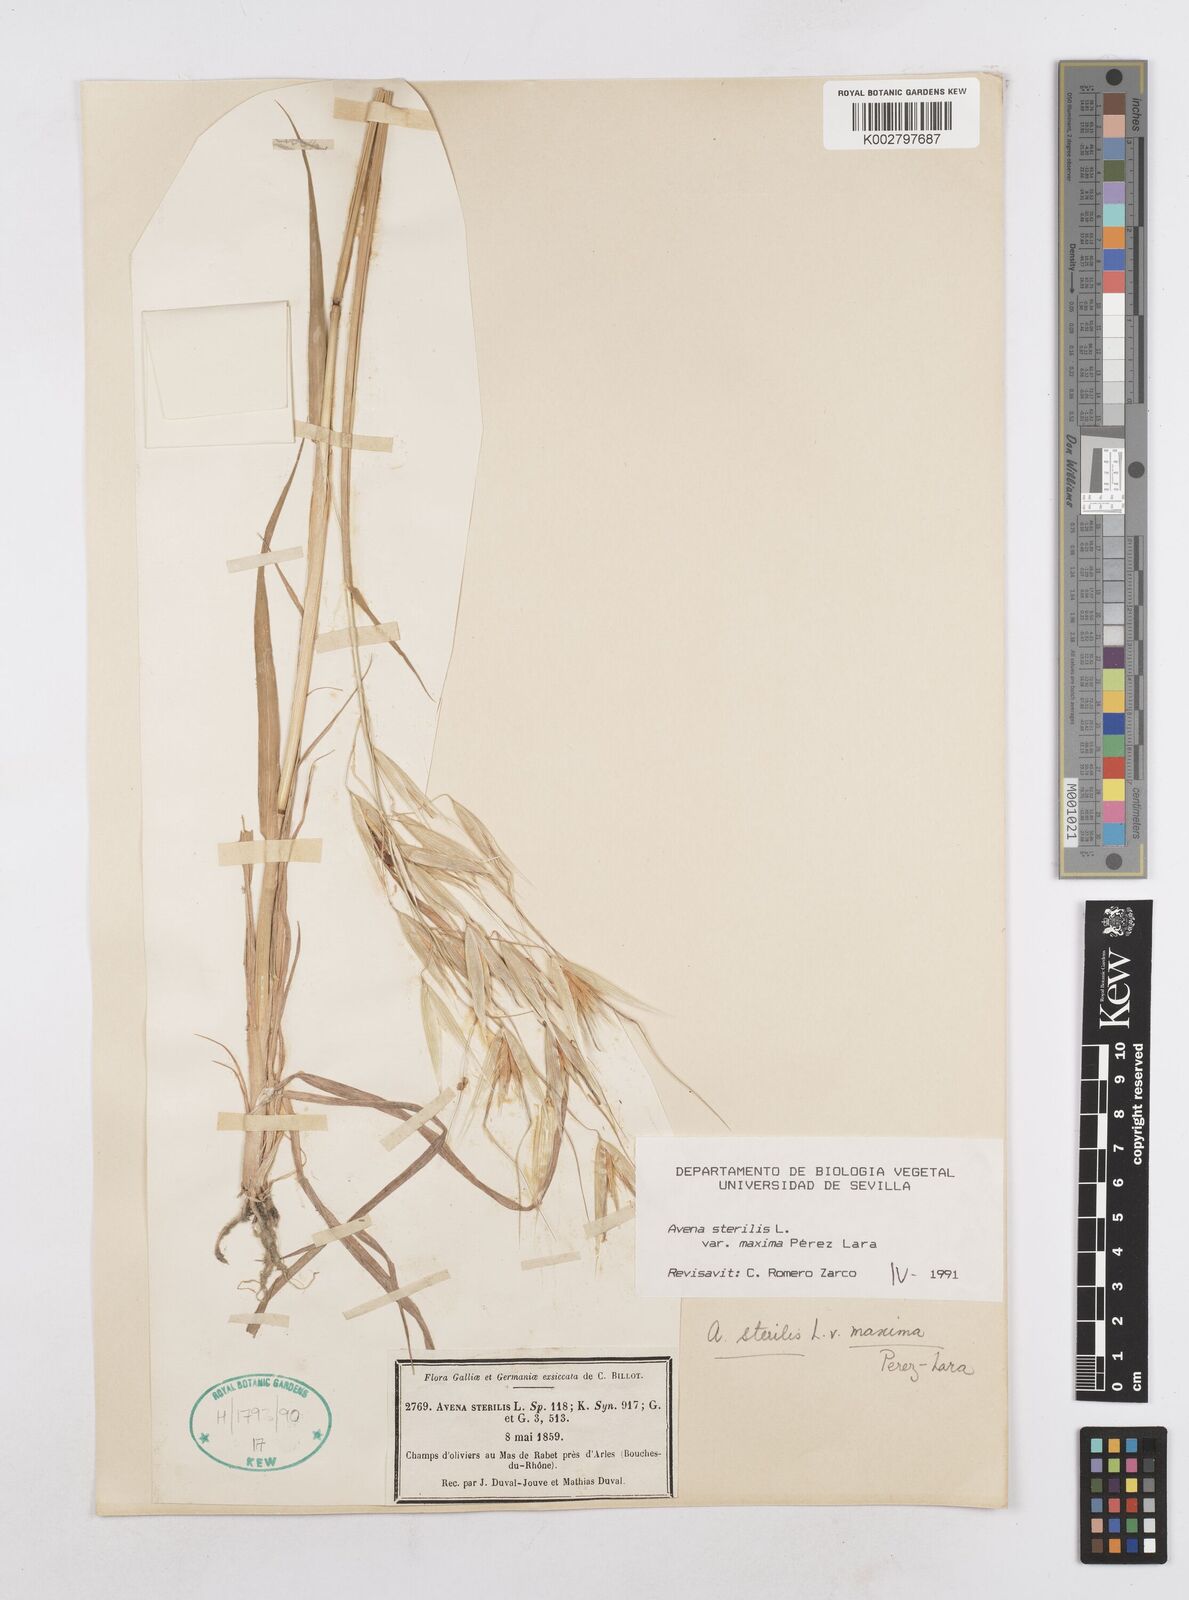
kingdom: Plantae
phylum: Tracheophyta
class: Liliopsida
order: Poales
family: Poaceae
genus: Avena
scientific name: Avena sterilis
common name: Animated oat
